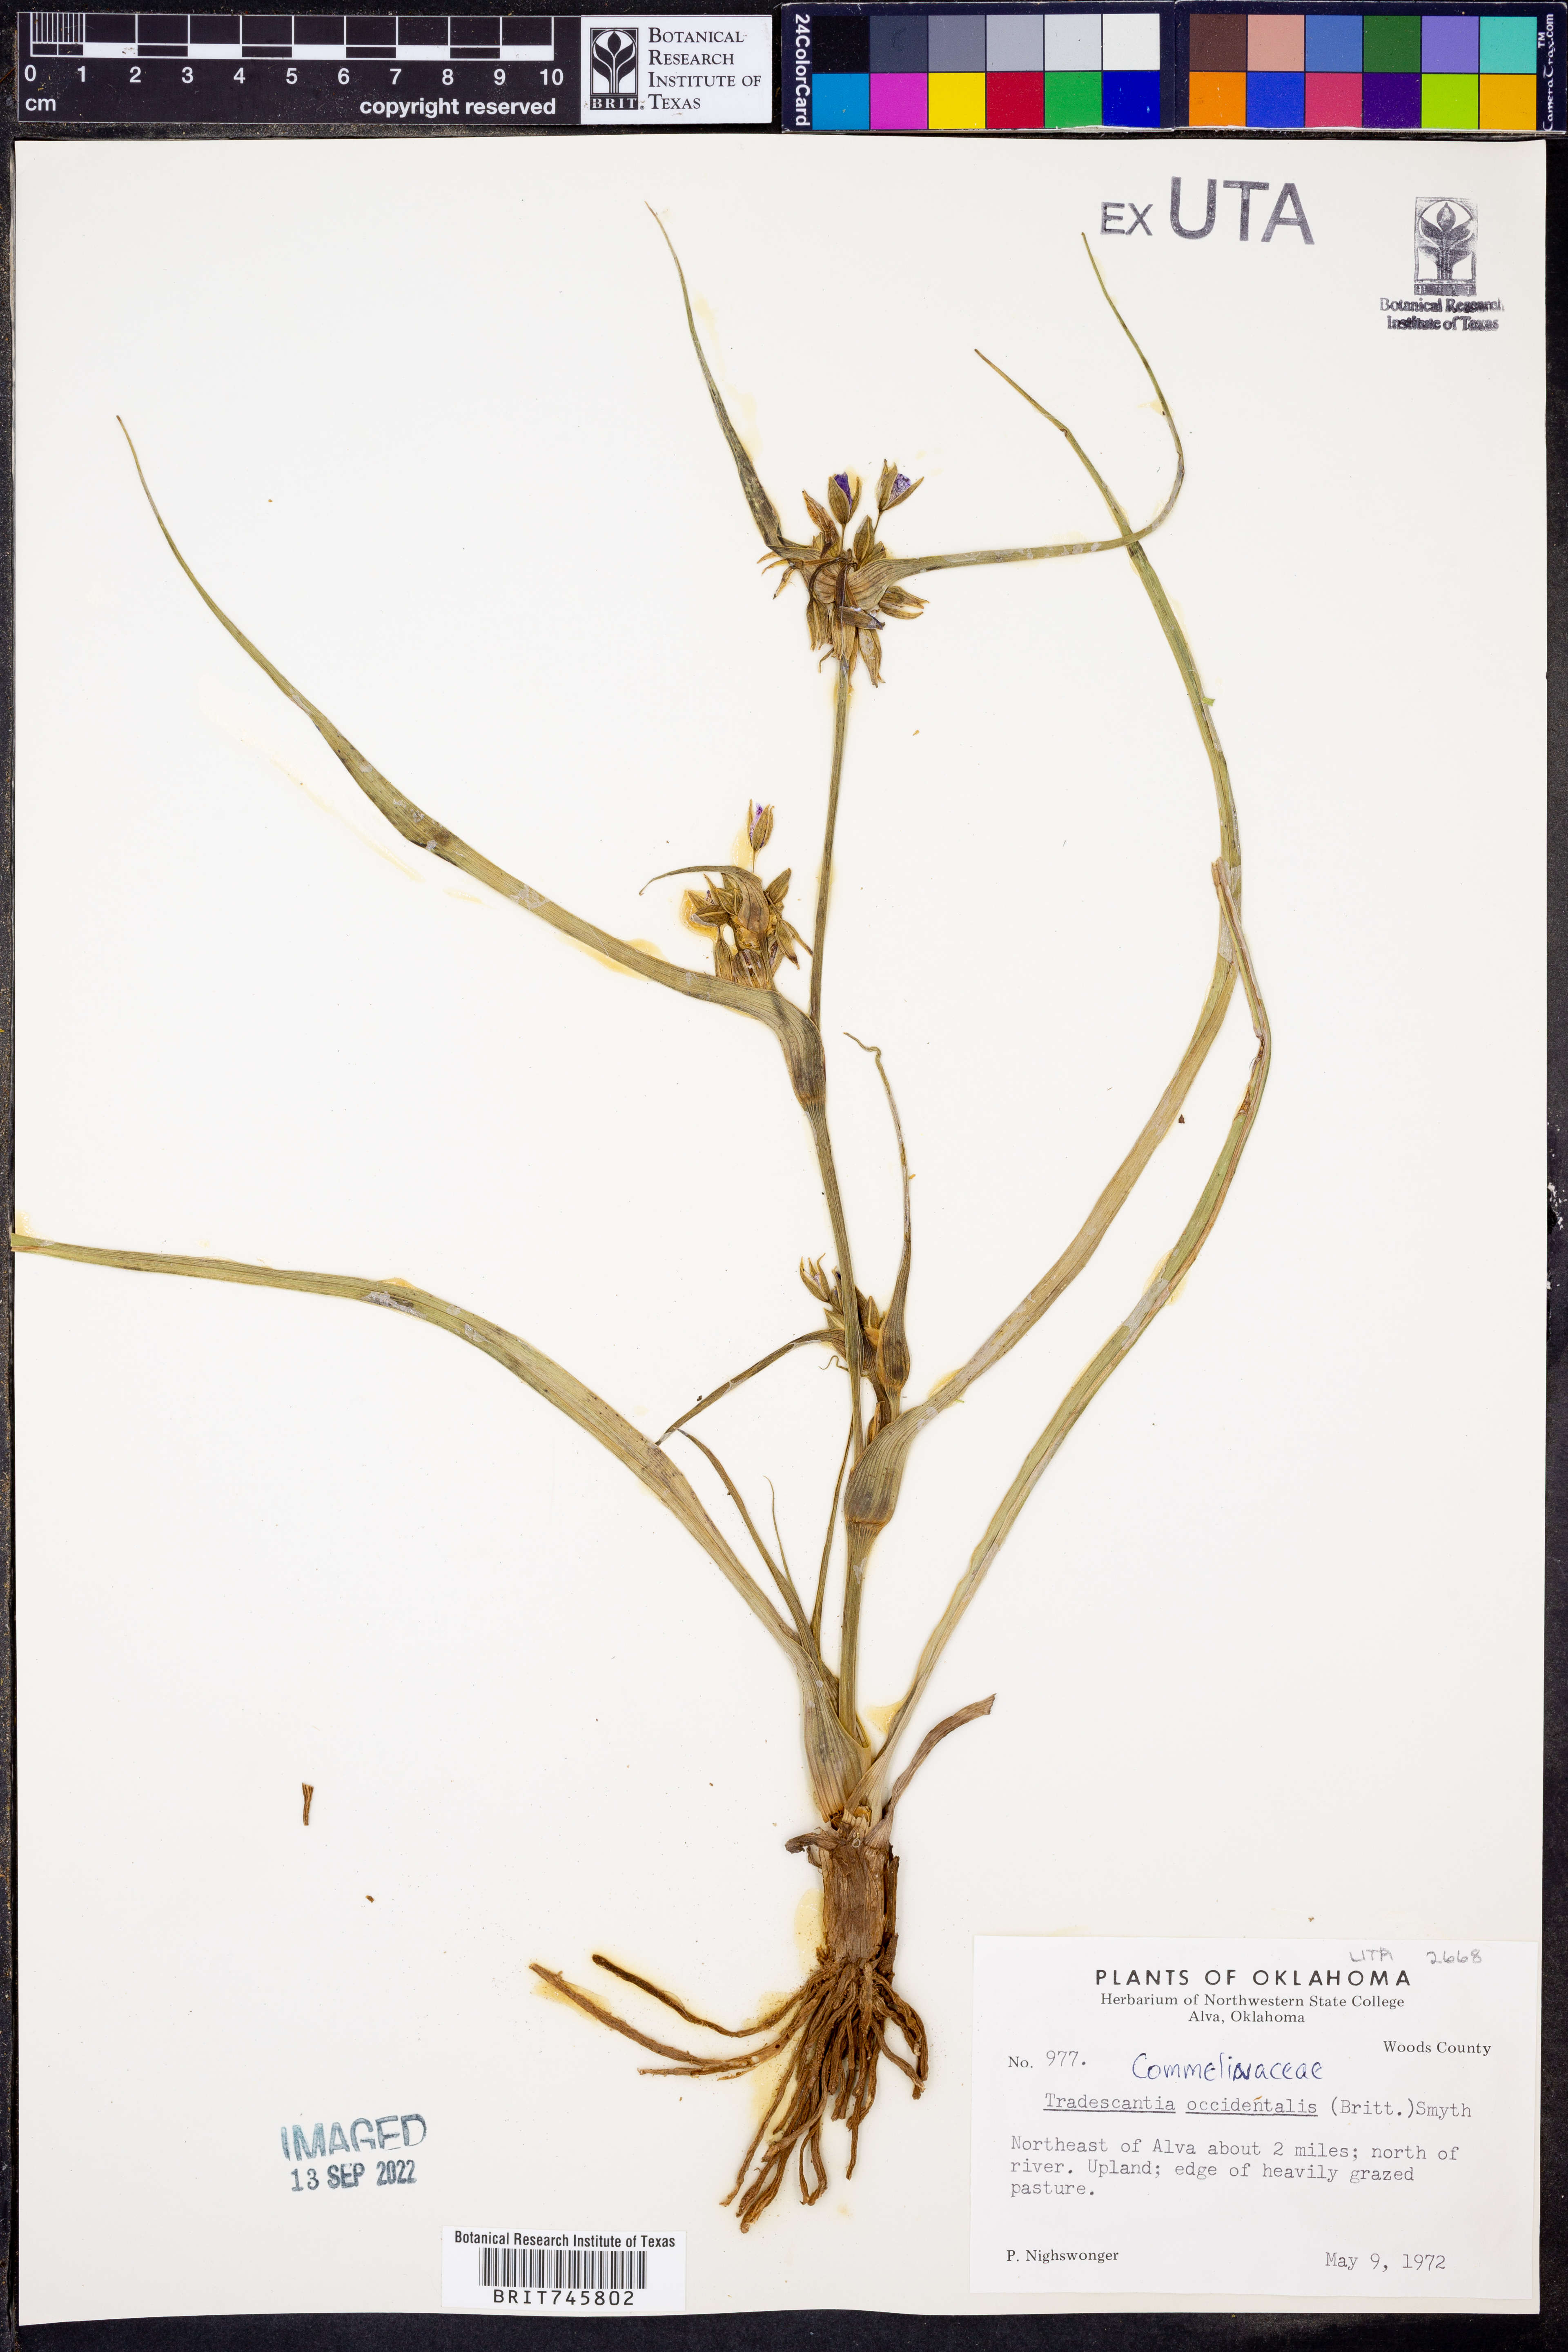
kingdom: Plantae
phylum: Tracheophyta
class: Liliopsida
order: Commelinales
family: Commelinaceae
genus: Tradescantia
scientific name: Tradescantia occidentalis
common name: Prairie spiderwort
